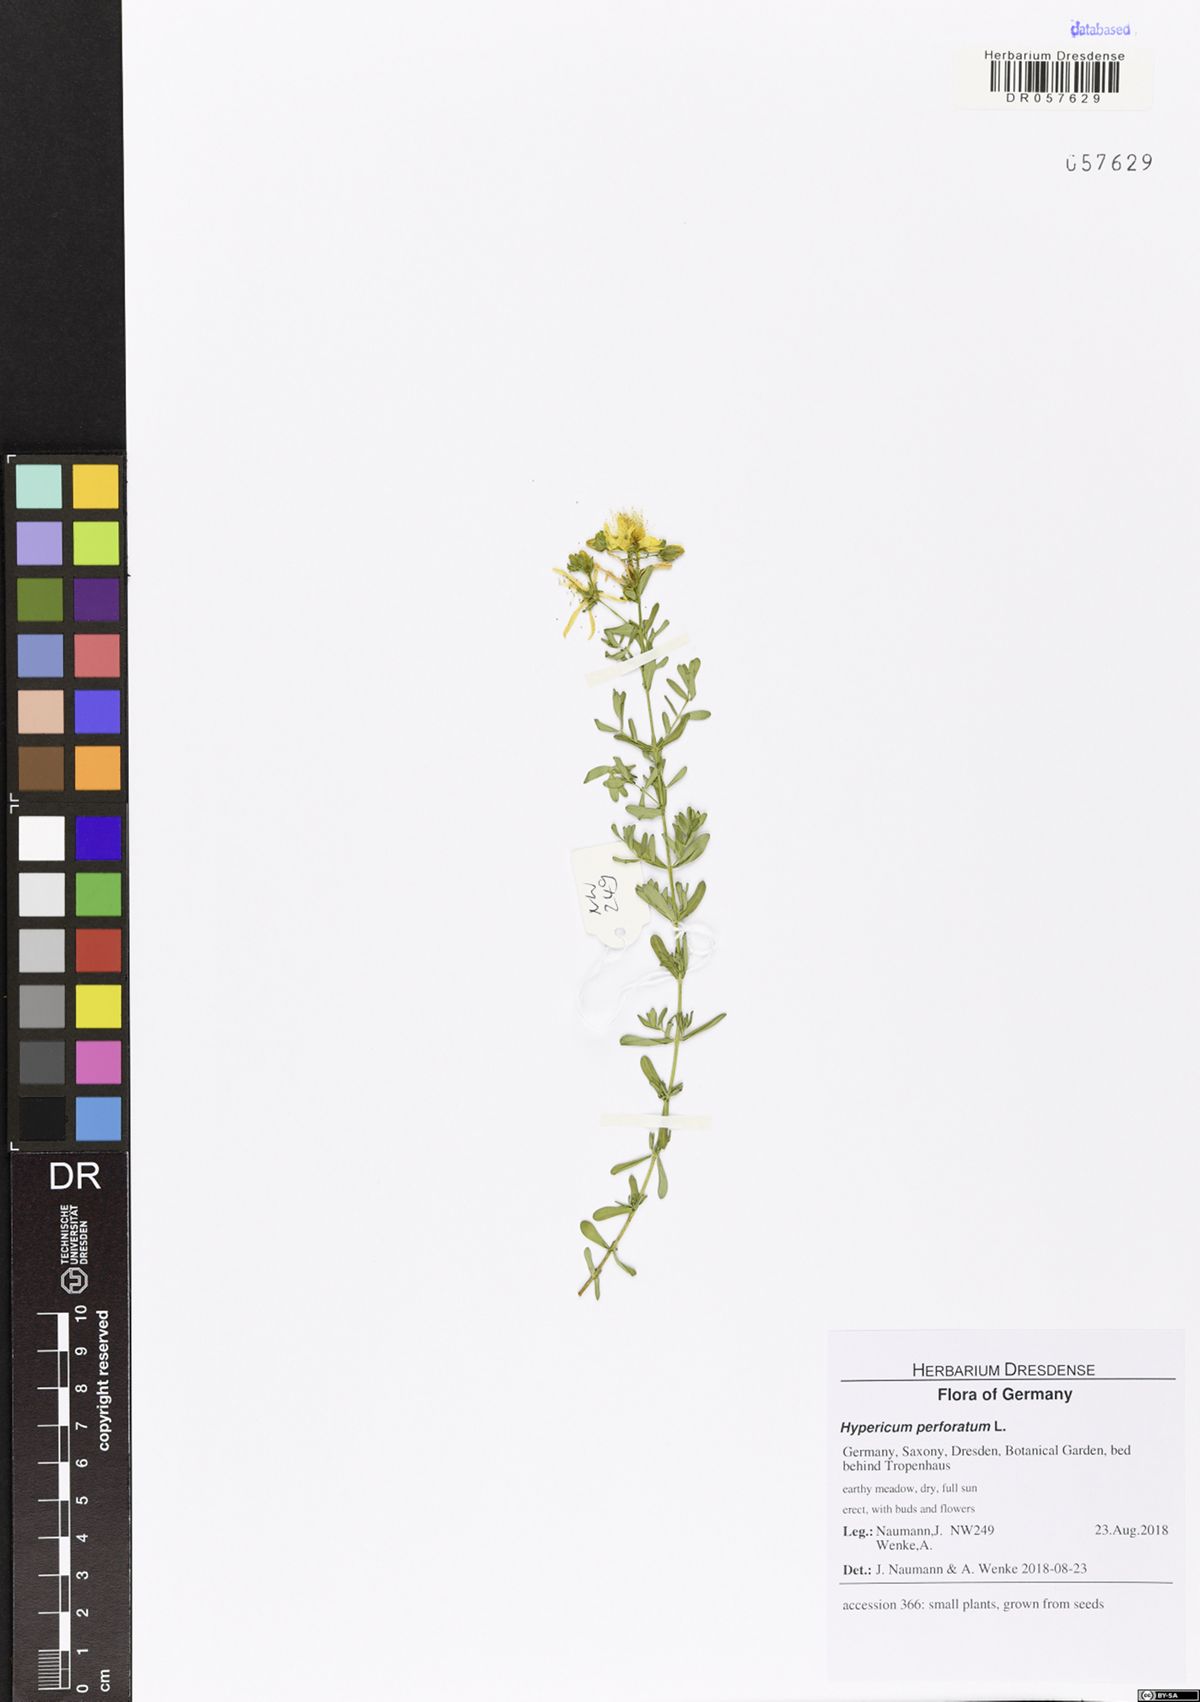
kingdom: Plantae
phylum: Tracheophyta
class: Magnoliopsida
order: Malpighiales
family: Hypericaceae
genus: Hypericum
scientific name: Hypericum perforatum
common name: Common st. johnswort
